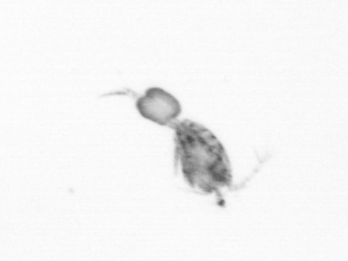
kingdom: Animalia
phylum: Arthropoda
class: Copepoda
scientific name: Copepoda
